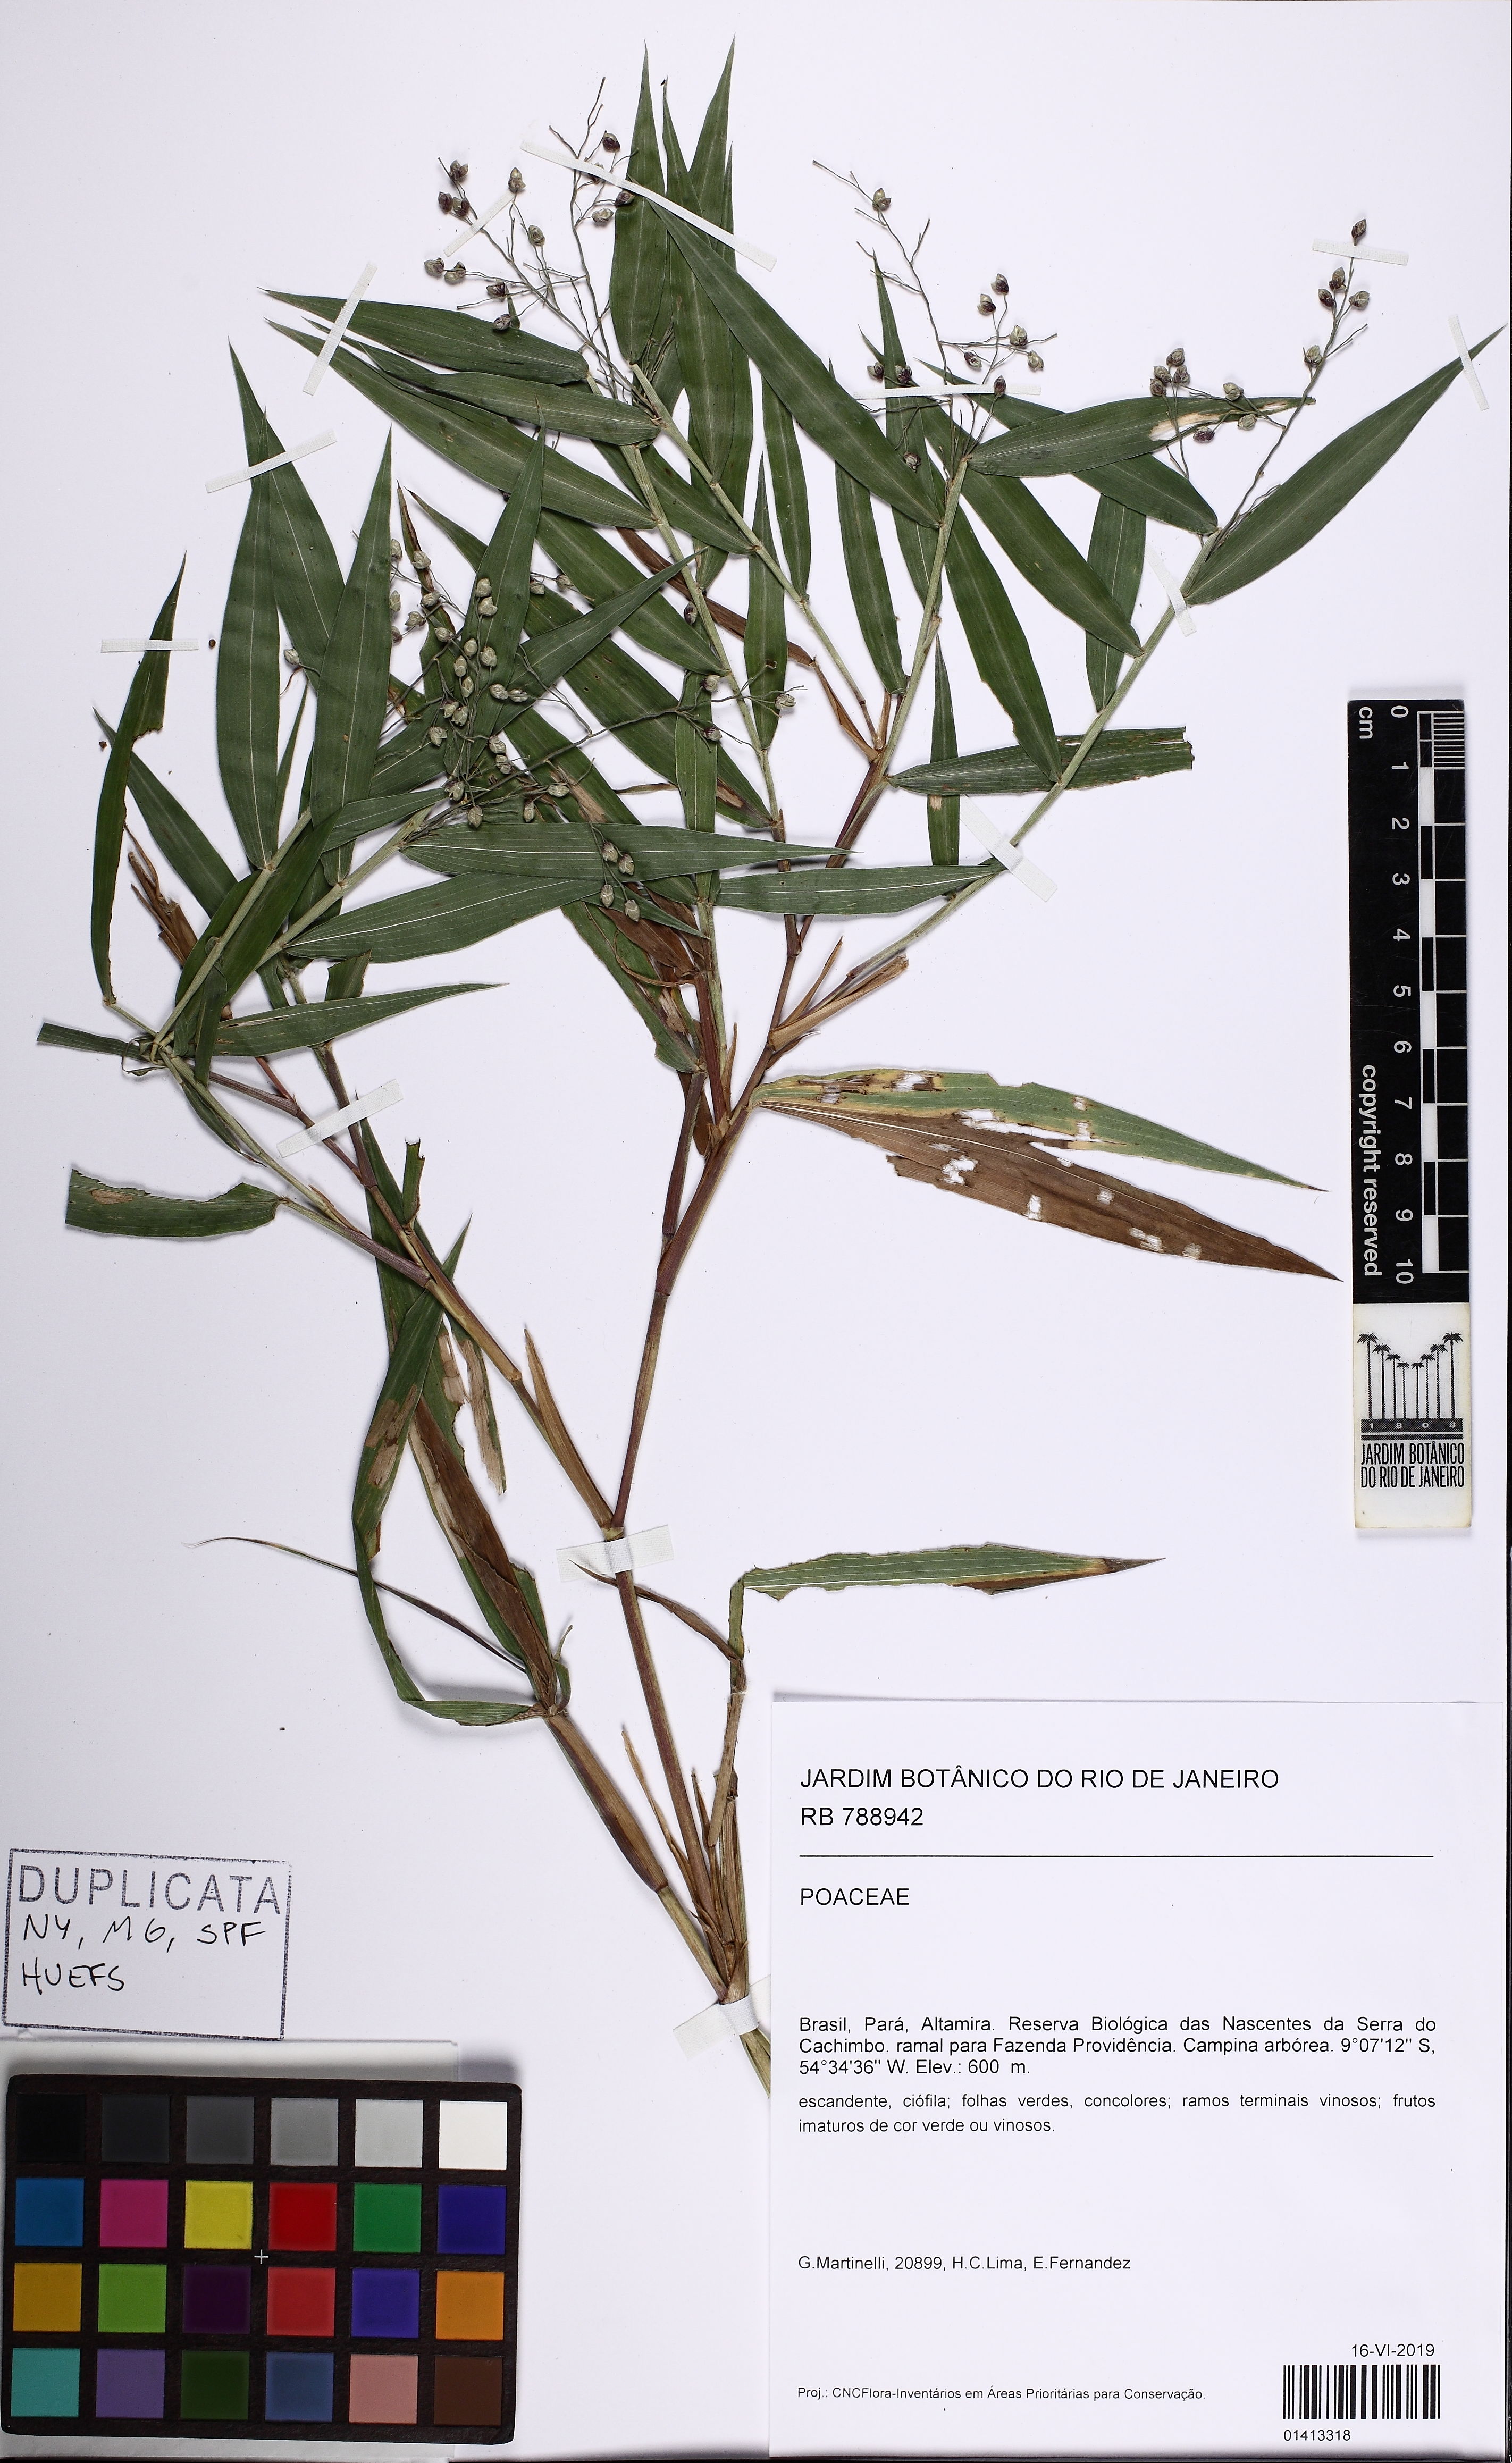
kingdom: Plantae
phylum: Tracheophyta
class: Liliopsida
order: Poales
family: Poaceae
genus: Lasiacis
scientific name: Lasiacis ligulata
